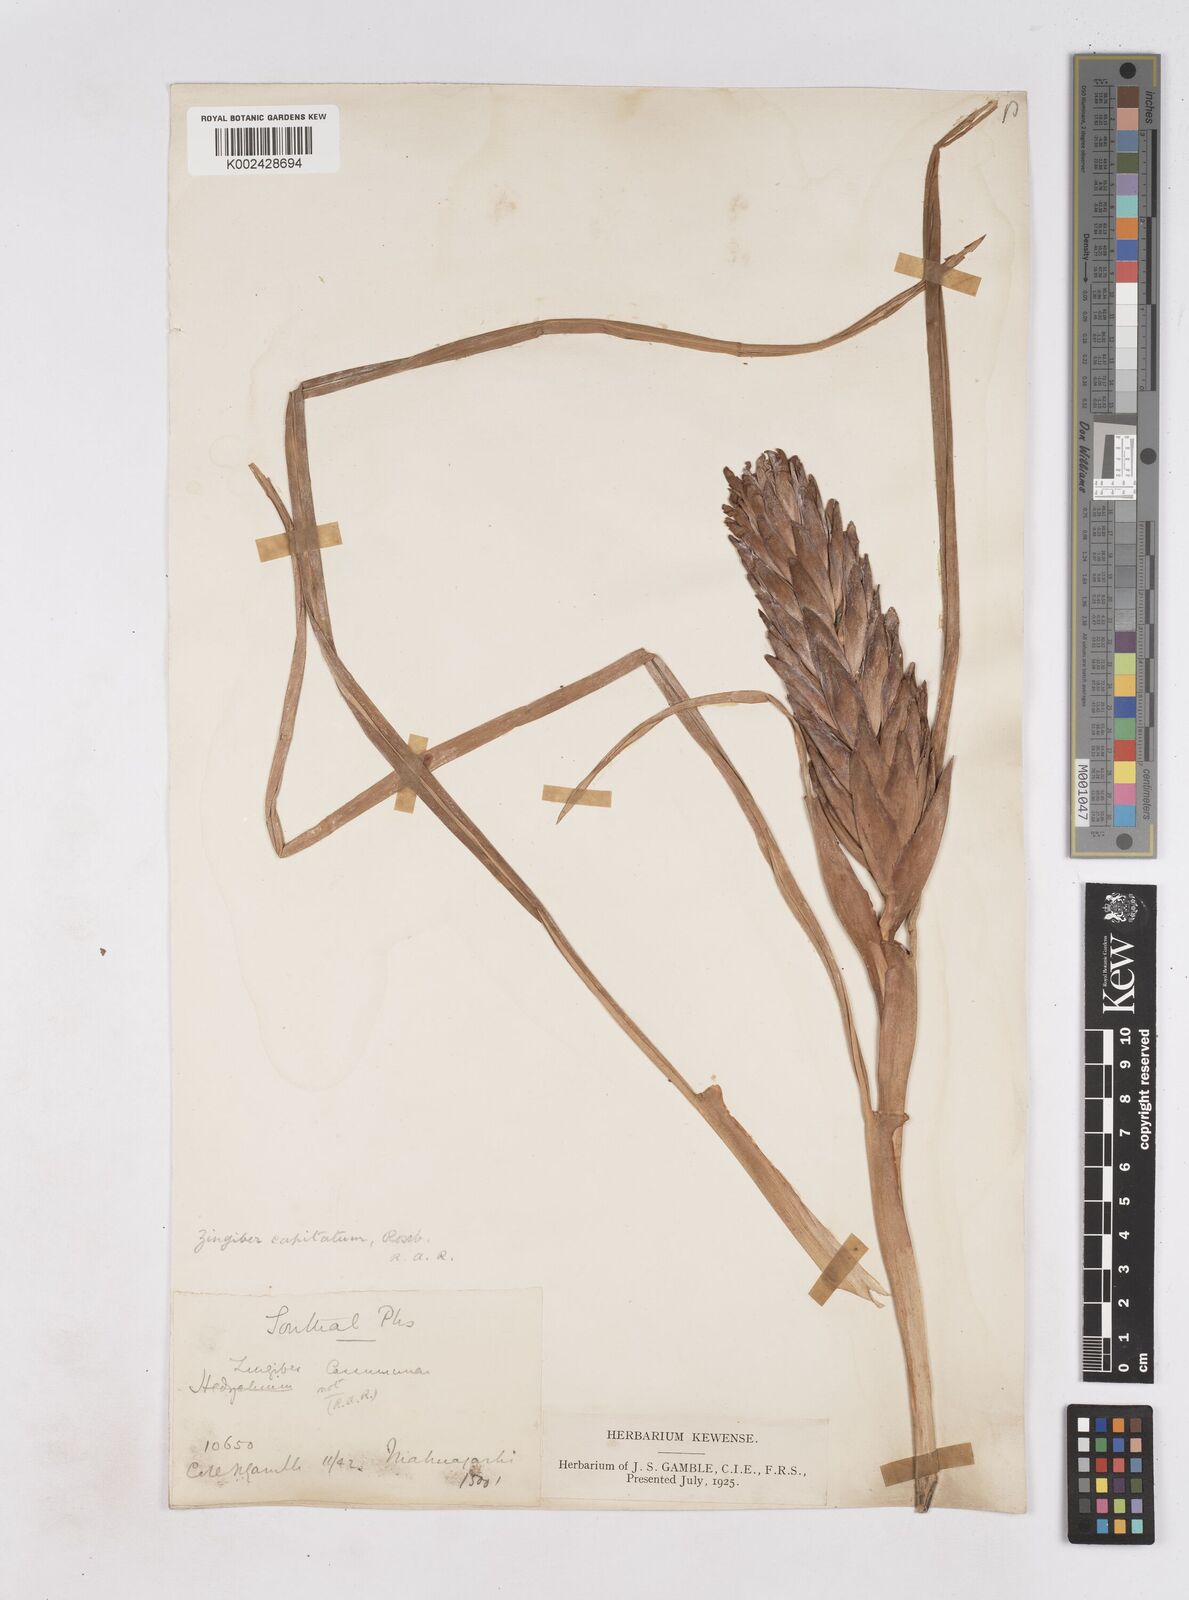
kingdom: Plantae
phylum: Tracheophyta
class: Liliopsida
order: Zingiberales
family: Zingiberaceae
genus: Zingiber
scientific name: Zingiber capitatum
